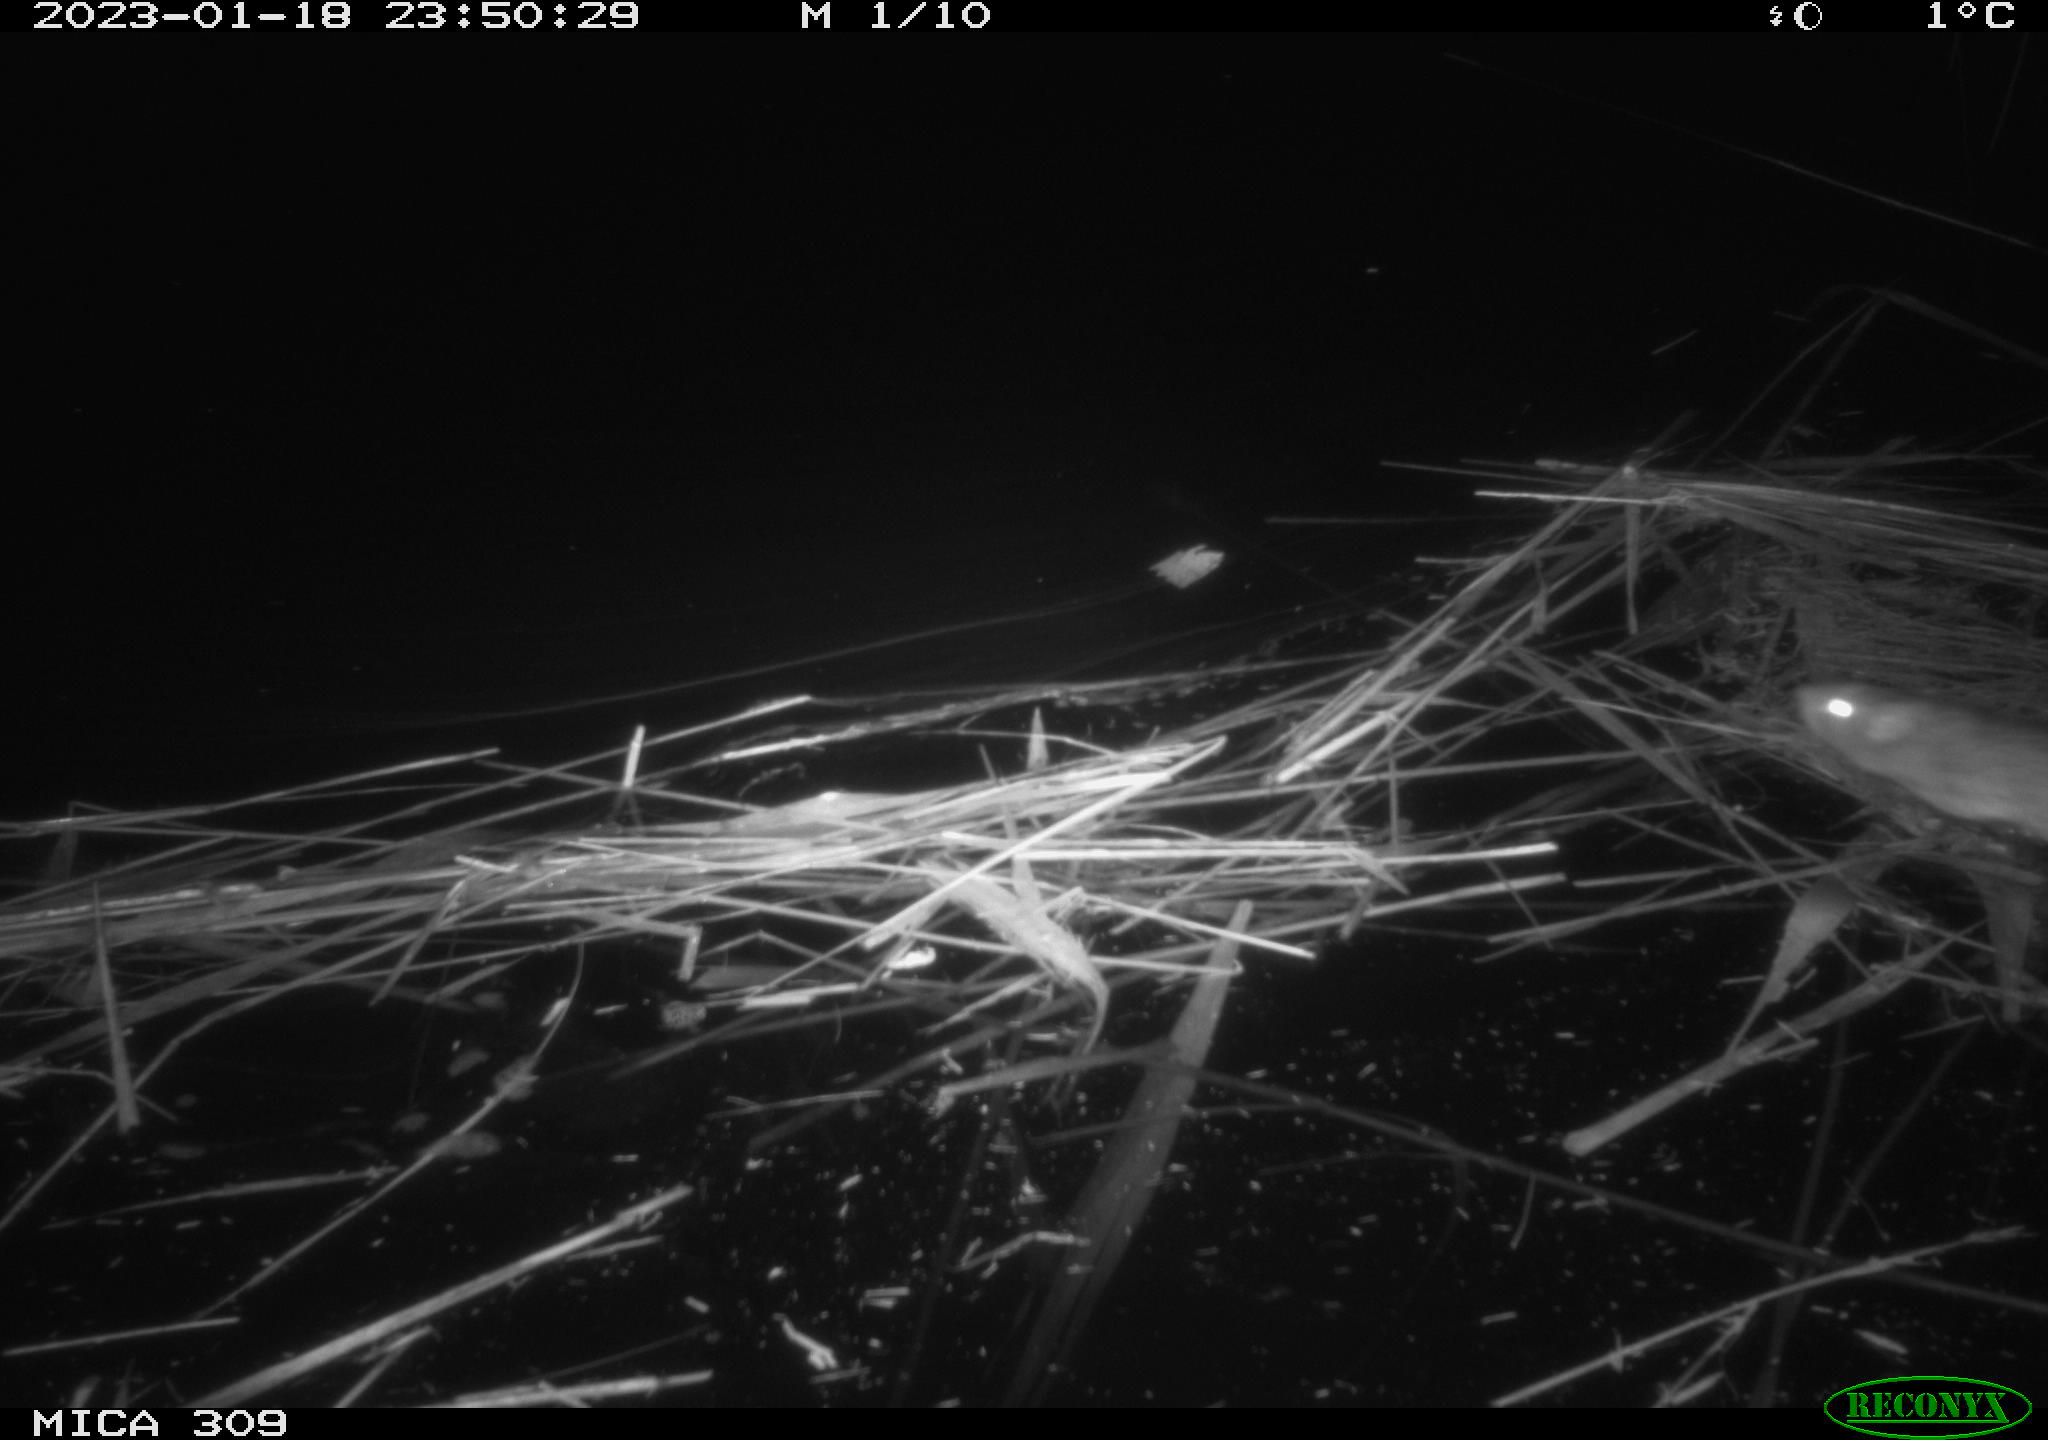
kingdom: Animalia
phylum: Chordata
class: Mammalia
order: Rodentia
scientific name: Rodentia
